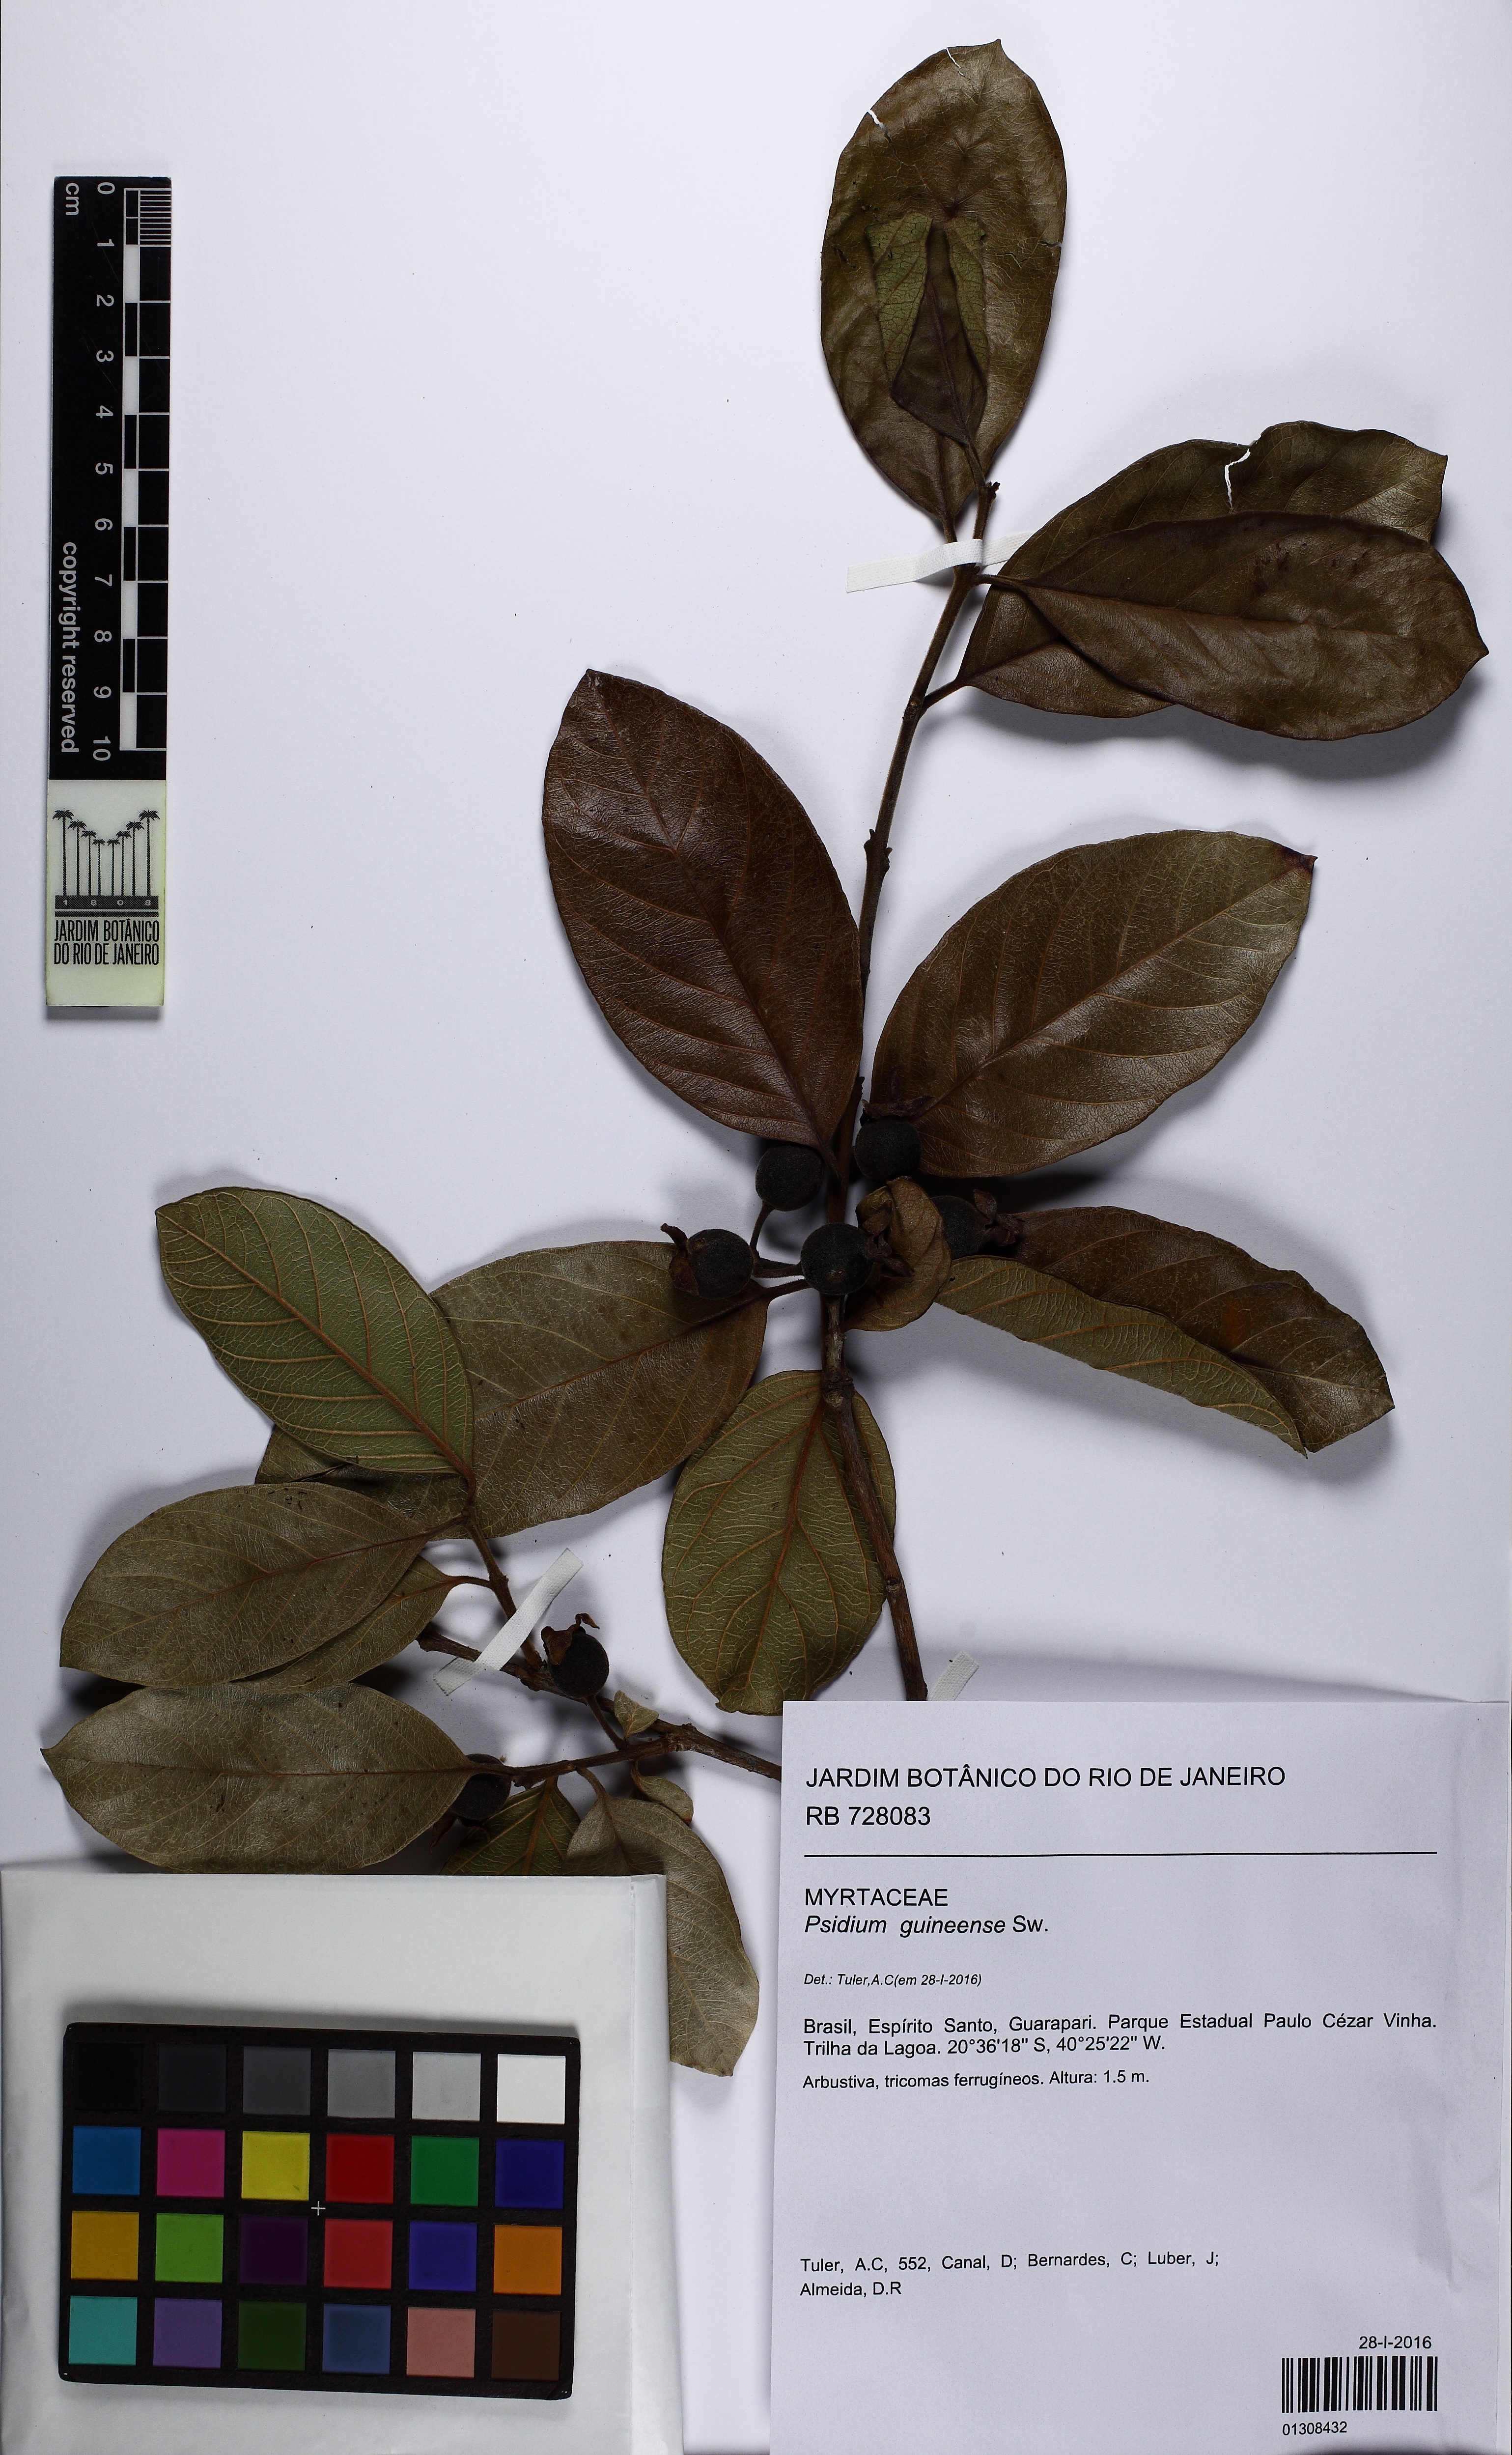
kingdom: Plantae
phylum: Tracheophyta
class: Magnoliopsida
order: Myrtales
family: Myrtaceae
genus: Psidium
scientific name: Psidium guineense
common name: Brazilian guava
